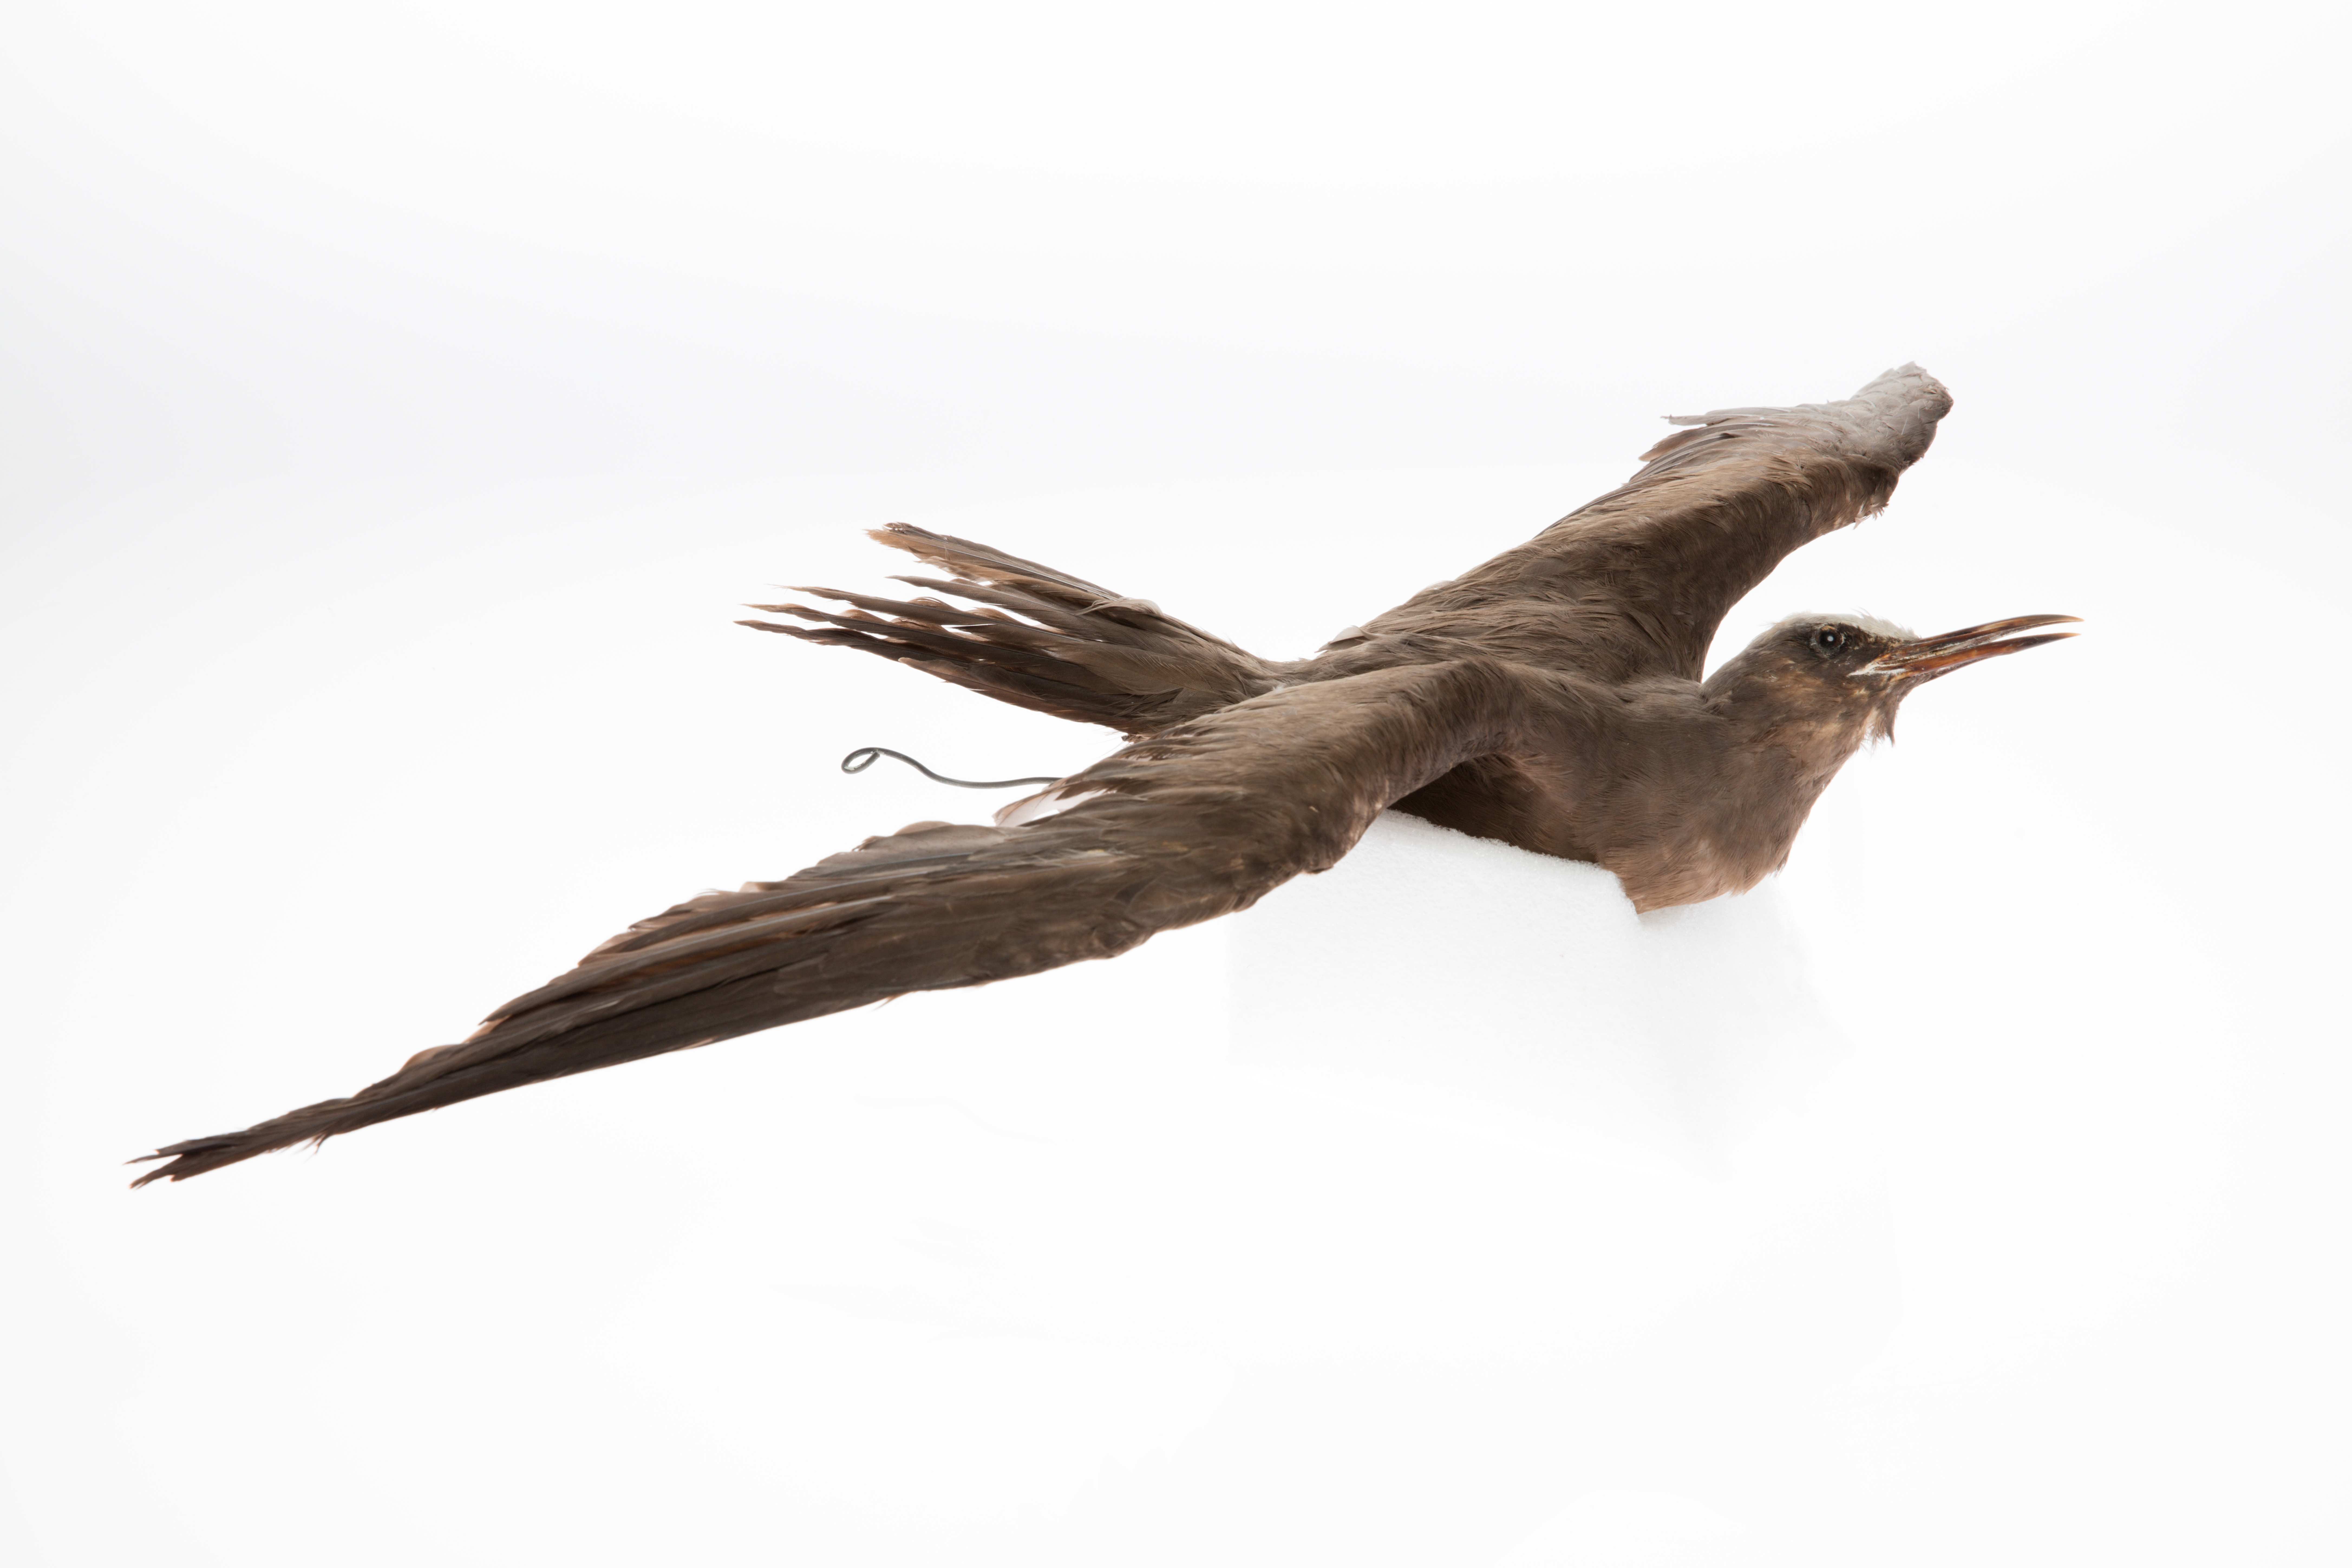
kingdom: Animalia
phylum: Chordata
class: Aves
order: Charadriiformes
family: Laridae
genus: Anous
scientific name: Anous stolidus
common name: Brown noddy
